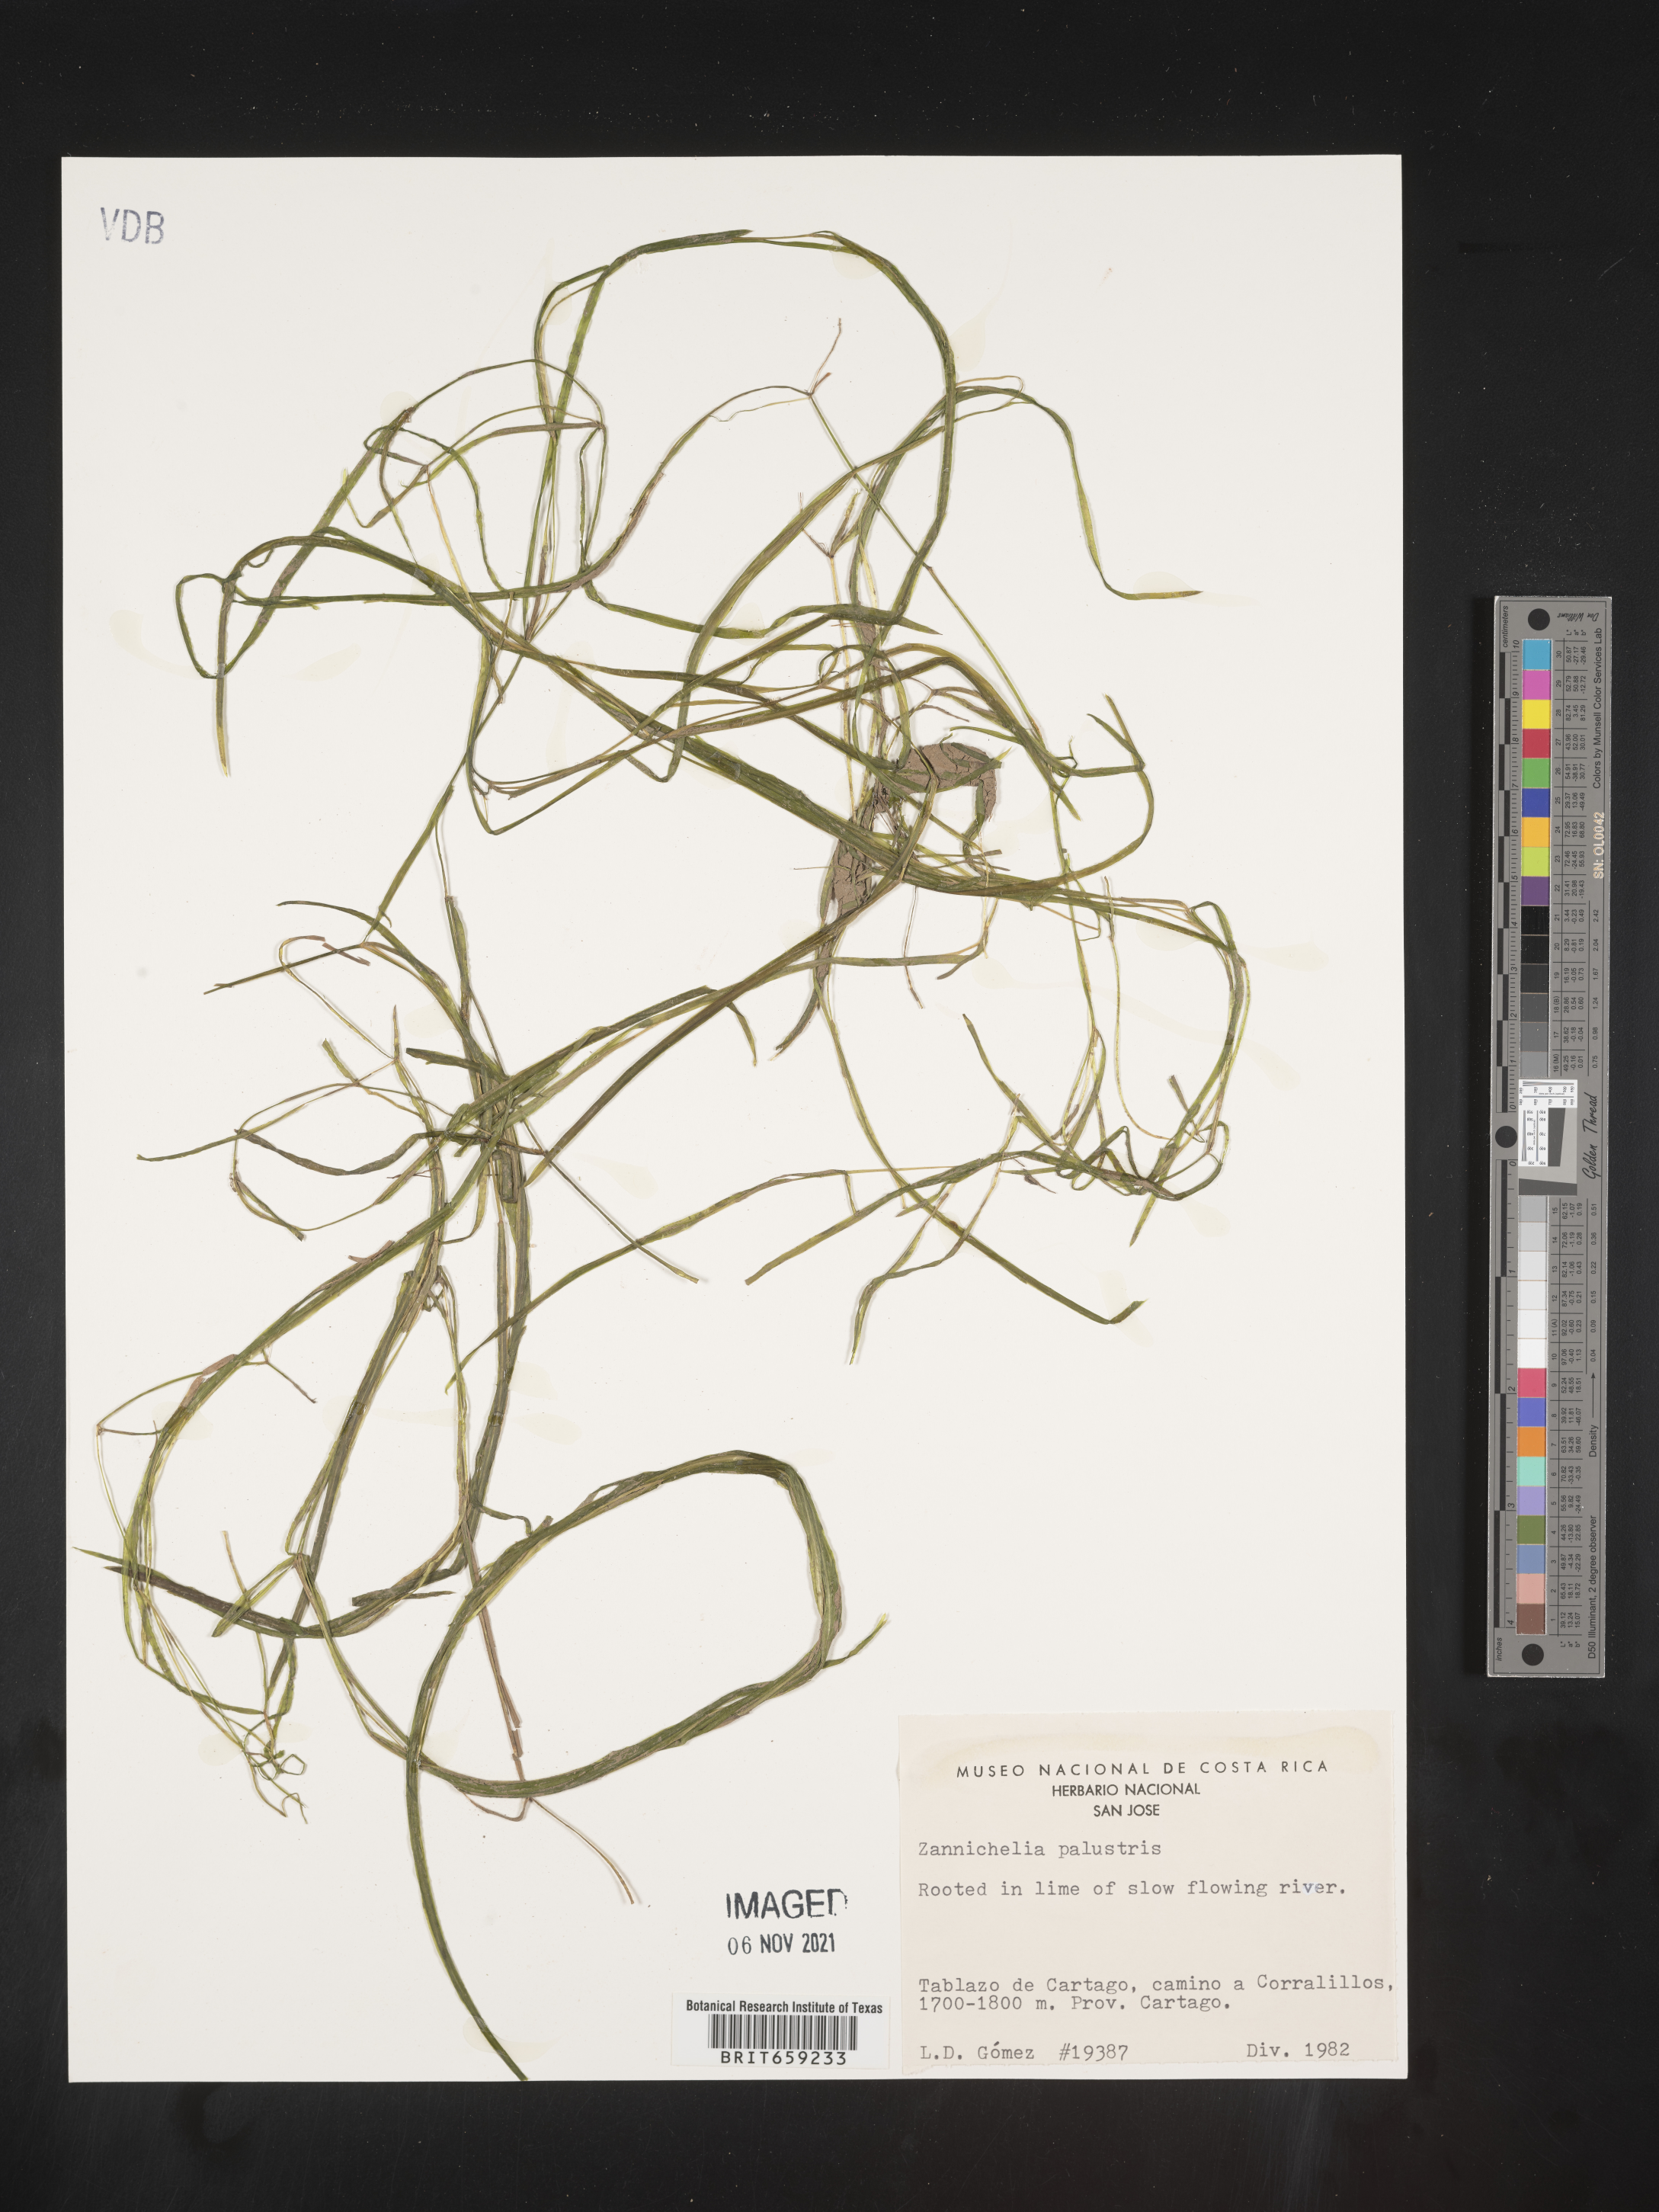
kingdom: Plantae
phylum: Tracheophyta
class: Liliopsida
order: Alismatales
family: Potamogetonaceae
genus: Zannichellia
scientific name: Zannichellia
